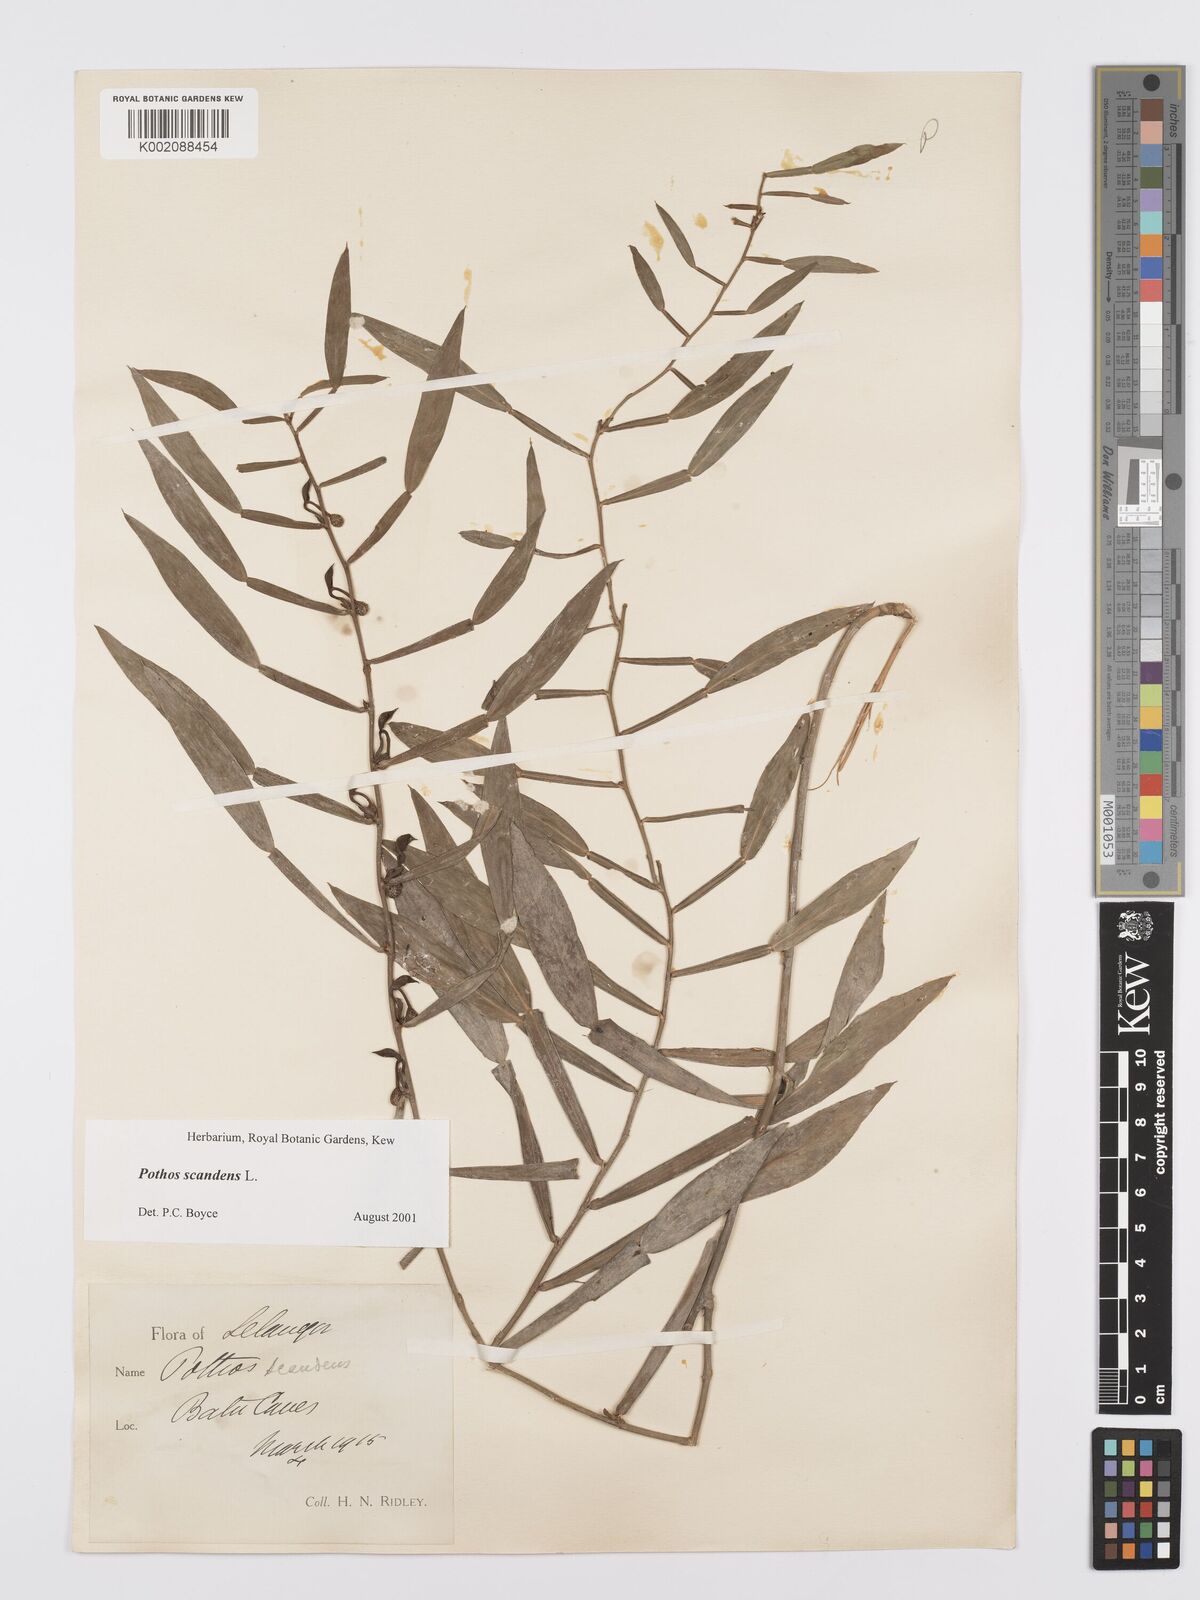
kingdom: Plantae
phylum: Tracheophyta
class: Liliopsida
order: Alismatales
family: Araceae
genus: Pothos
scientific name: Pothos scandens
